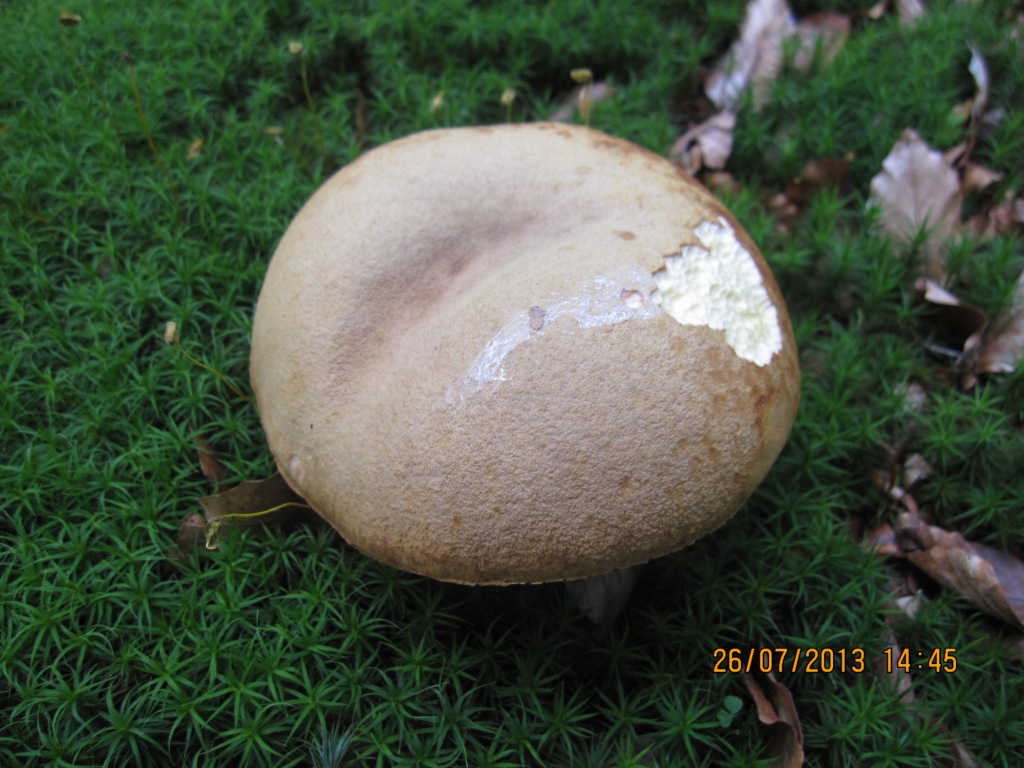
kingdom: Fungi
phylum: Basidiomycota
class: Agaricomycetes
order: Boletales
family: Boletaceae
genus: Xerocomus
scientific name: Xerocomus ferrugineus
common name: vaskeskinds-rørhat
